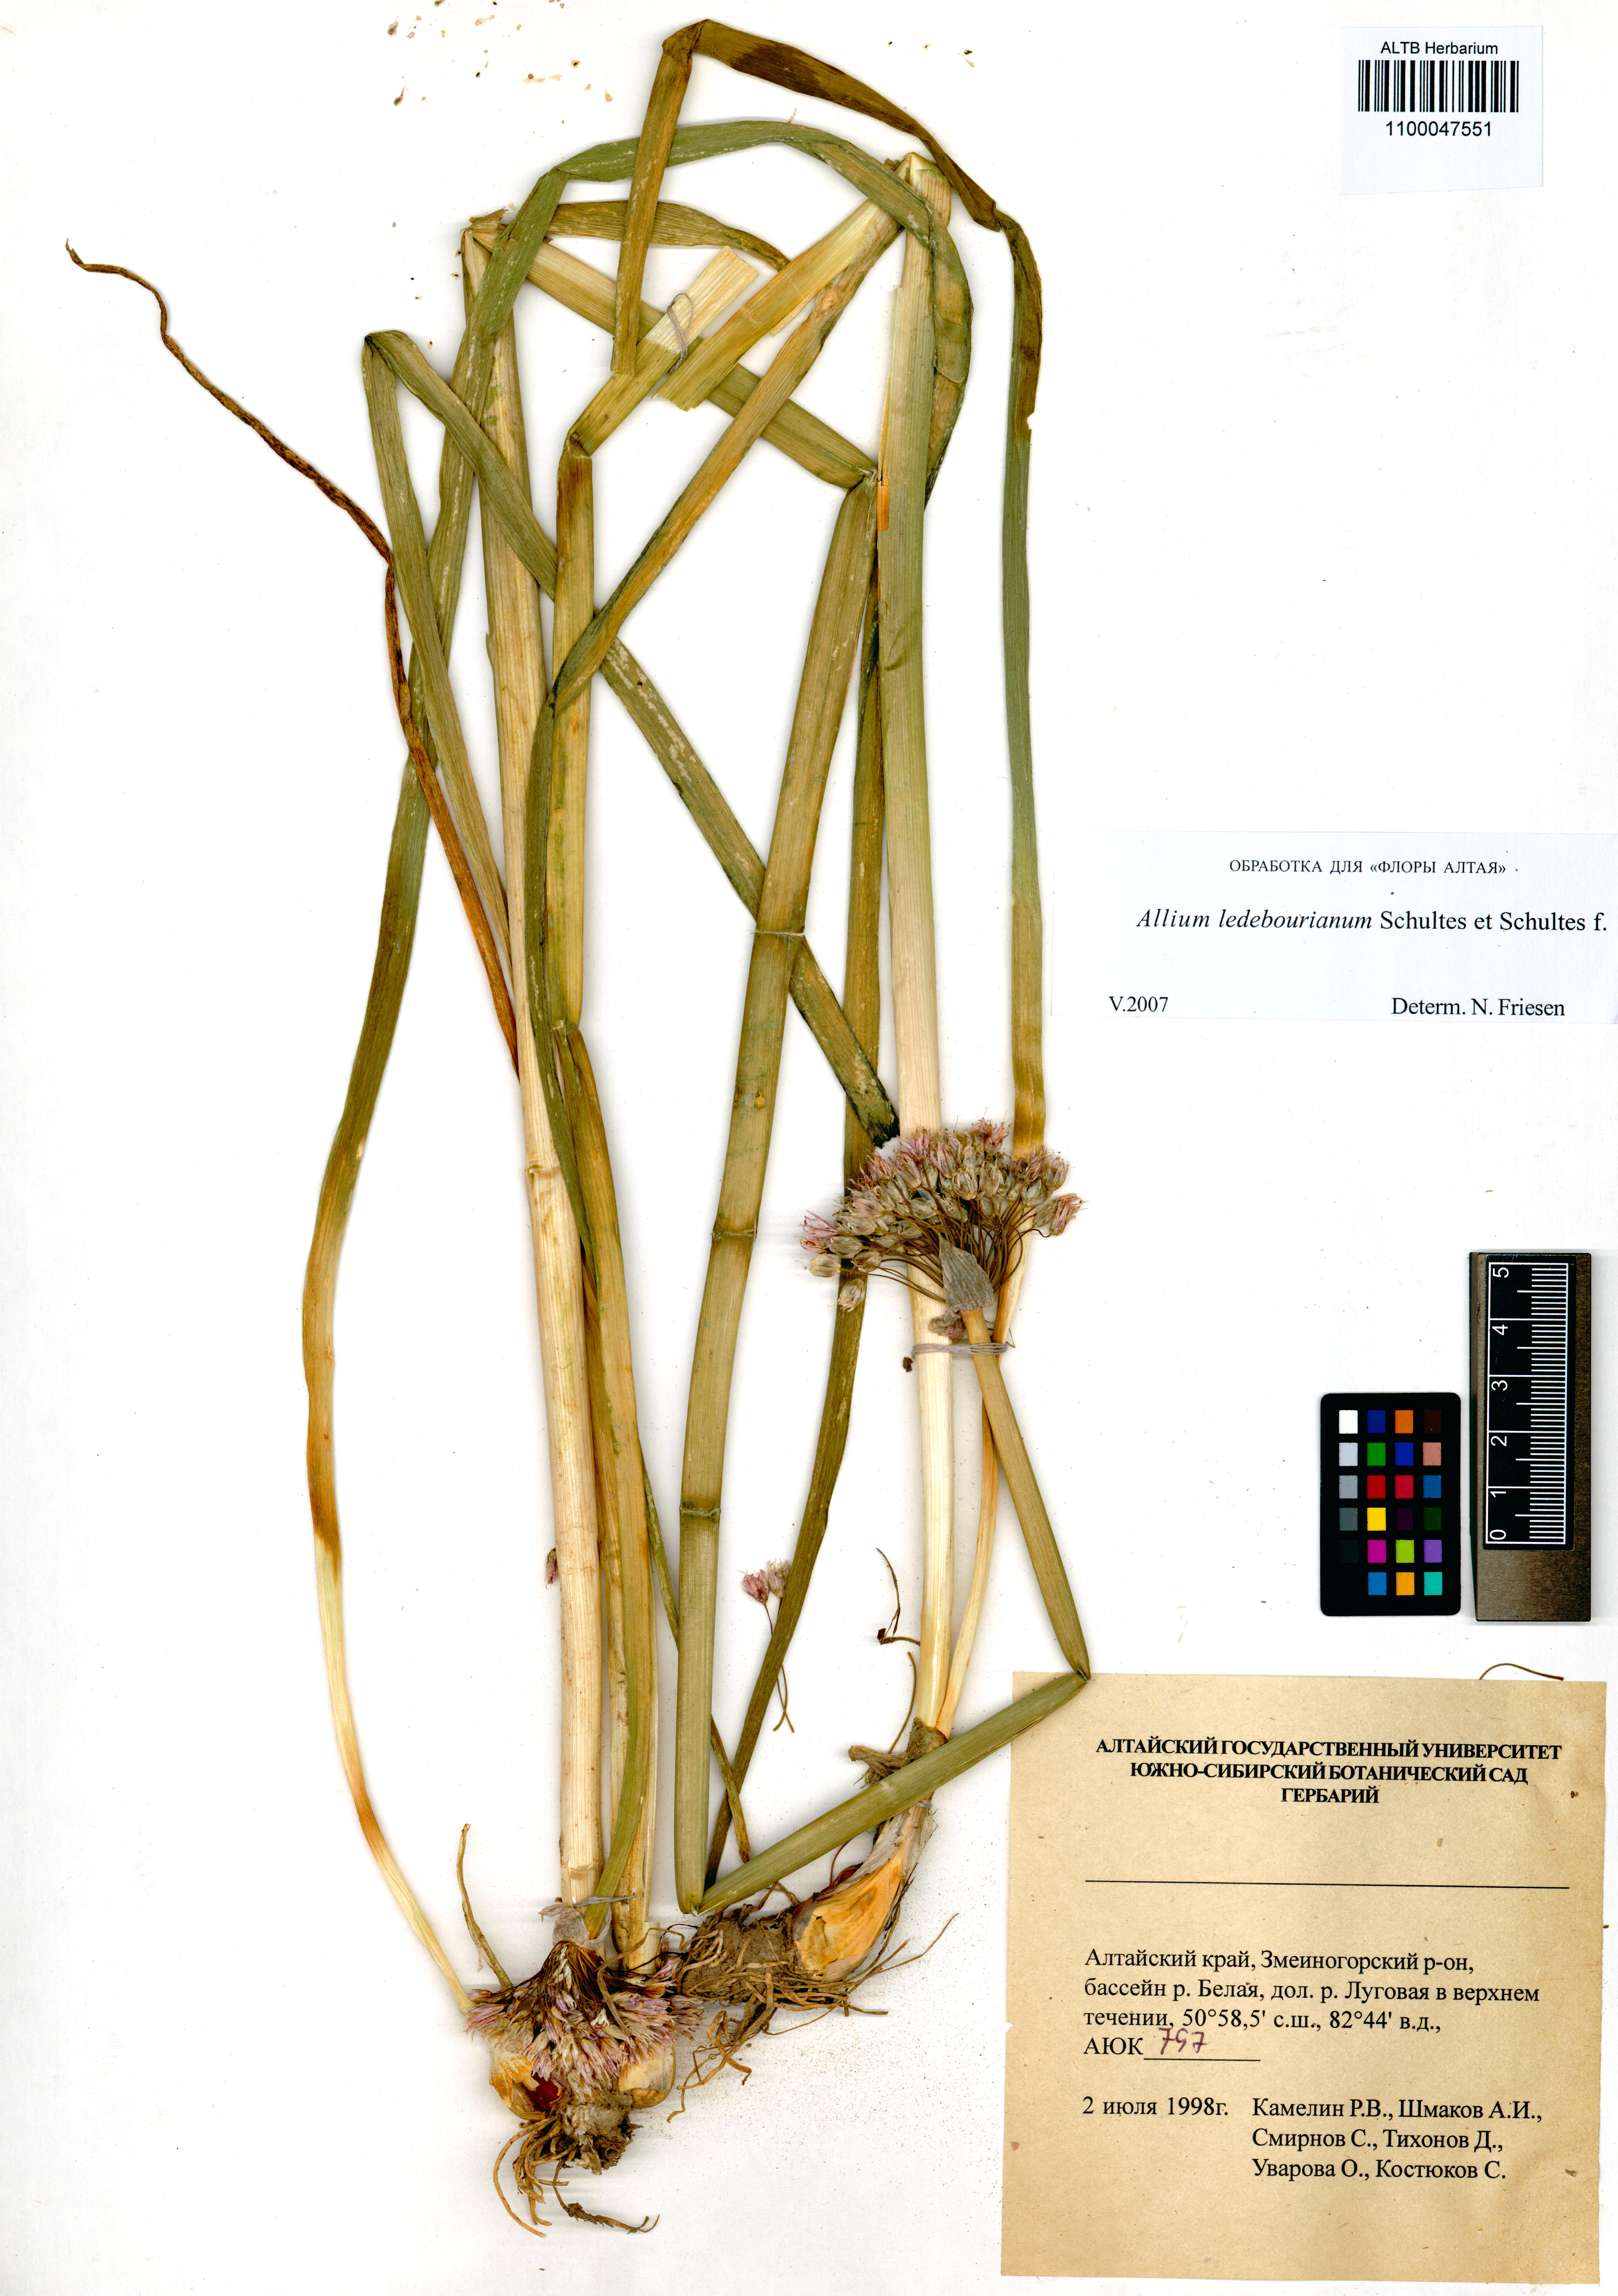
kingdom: Plantae
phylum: Tracheophyta
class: Liliopsida
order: Asparagales
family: Amaryllidaceae
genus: Allium
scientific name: Allium ledebourianum
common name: Ledebour chive
